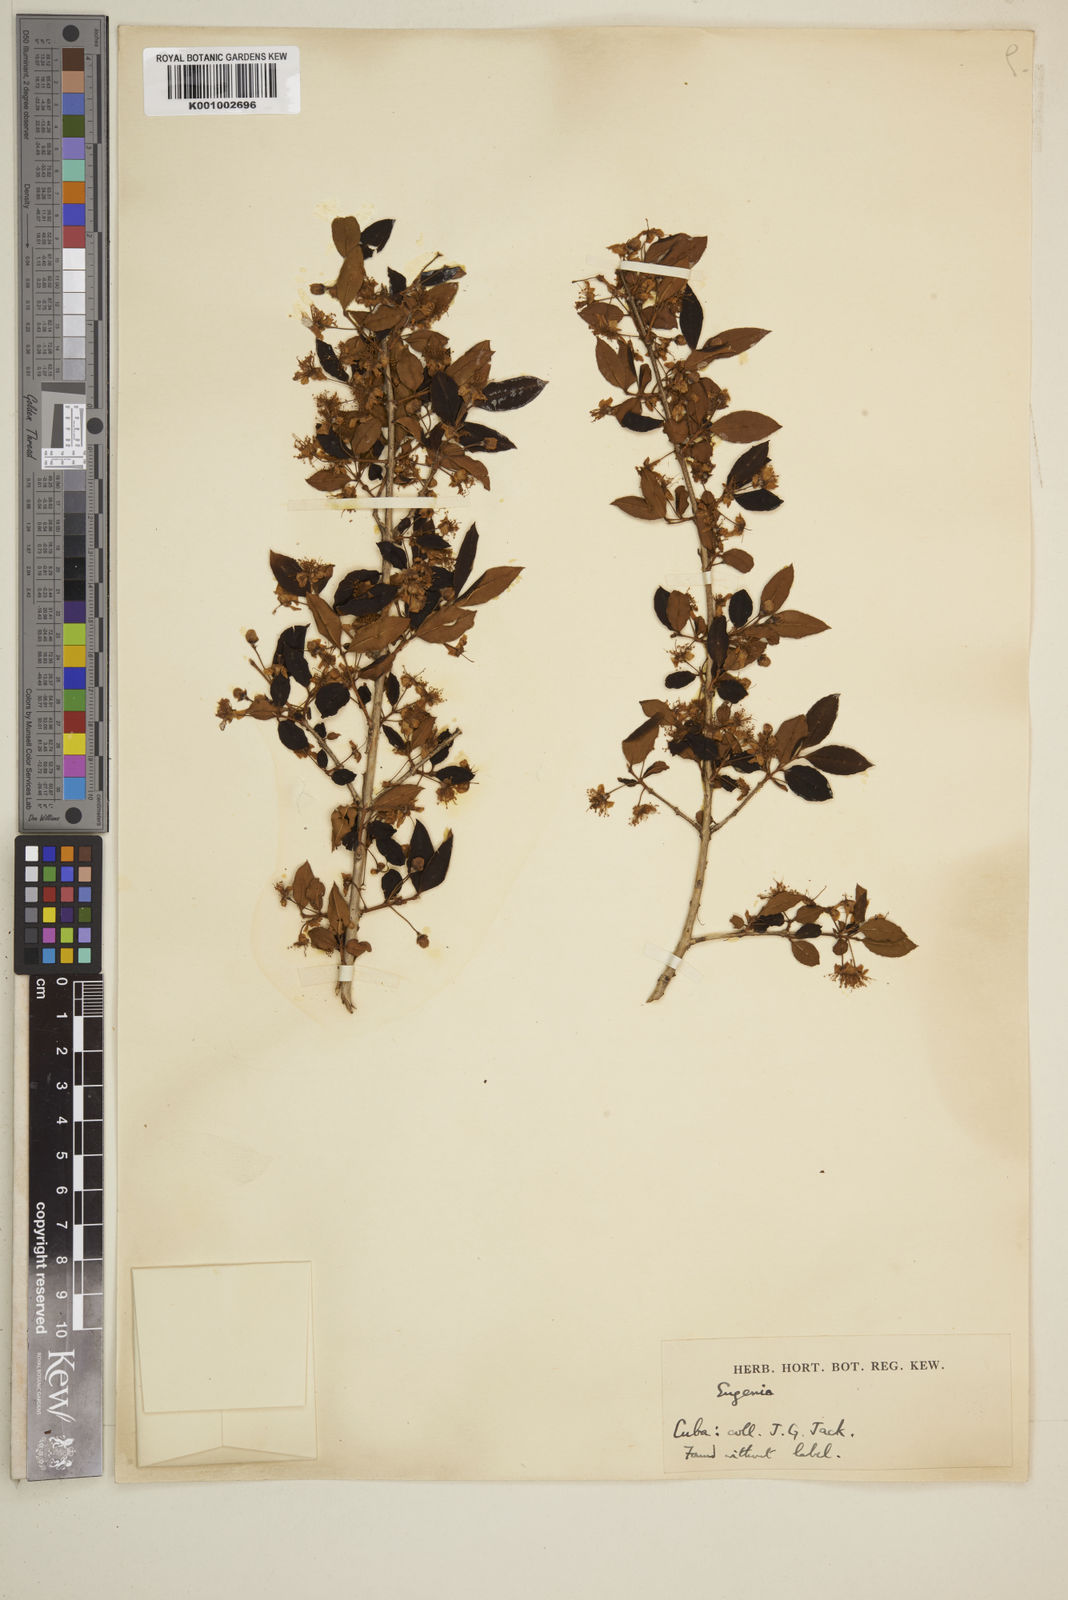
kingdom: Plantae
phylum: Tracheophyta
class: Magnoliopsida
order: Myrtales
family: Myrtaceae
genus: Eugenia
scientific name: Eugenia
